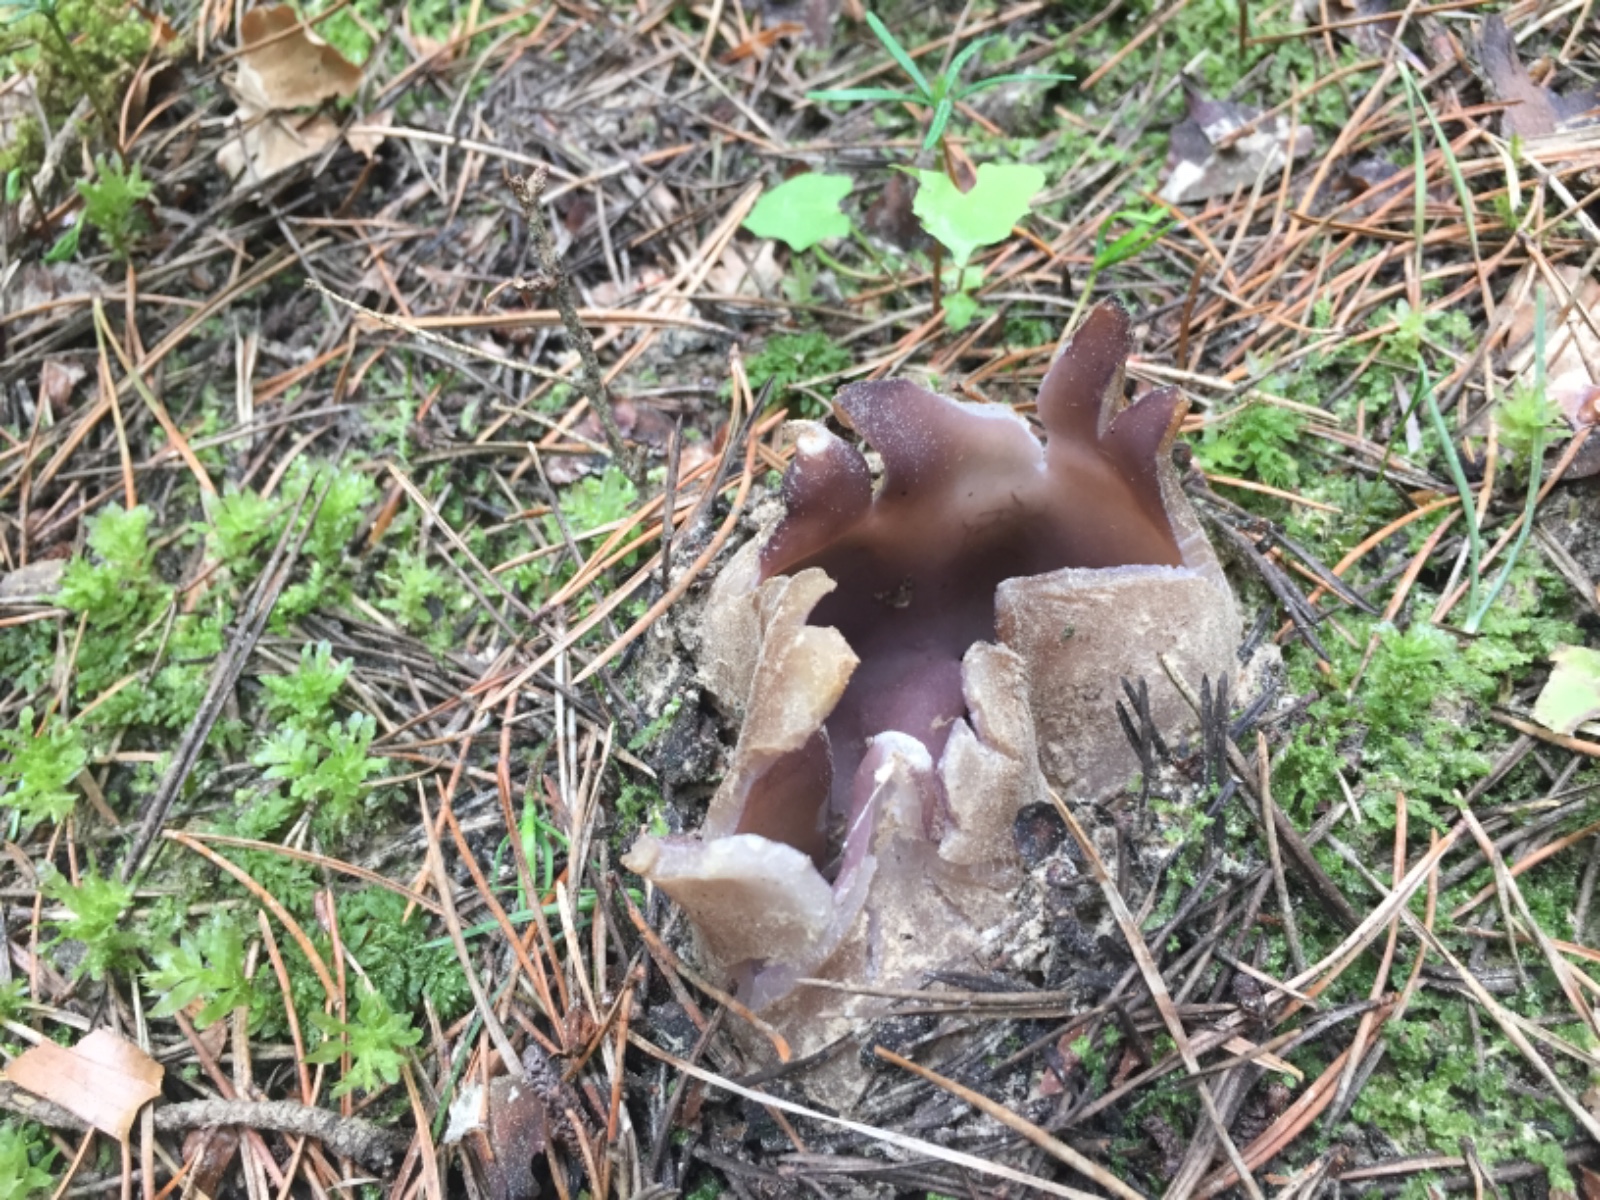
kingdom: Fungi
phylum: Ascomycota
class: Pezizomycetes
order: Pezizales
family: Pezizaceae
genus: Sarcosphaera
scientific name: Sarcosphaera coronaria
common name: stjernebæger
